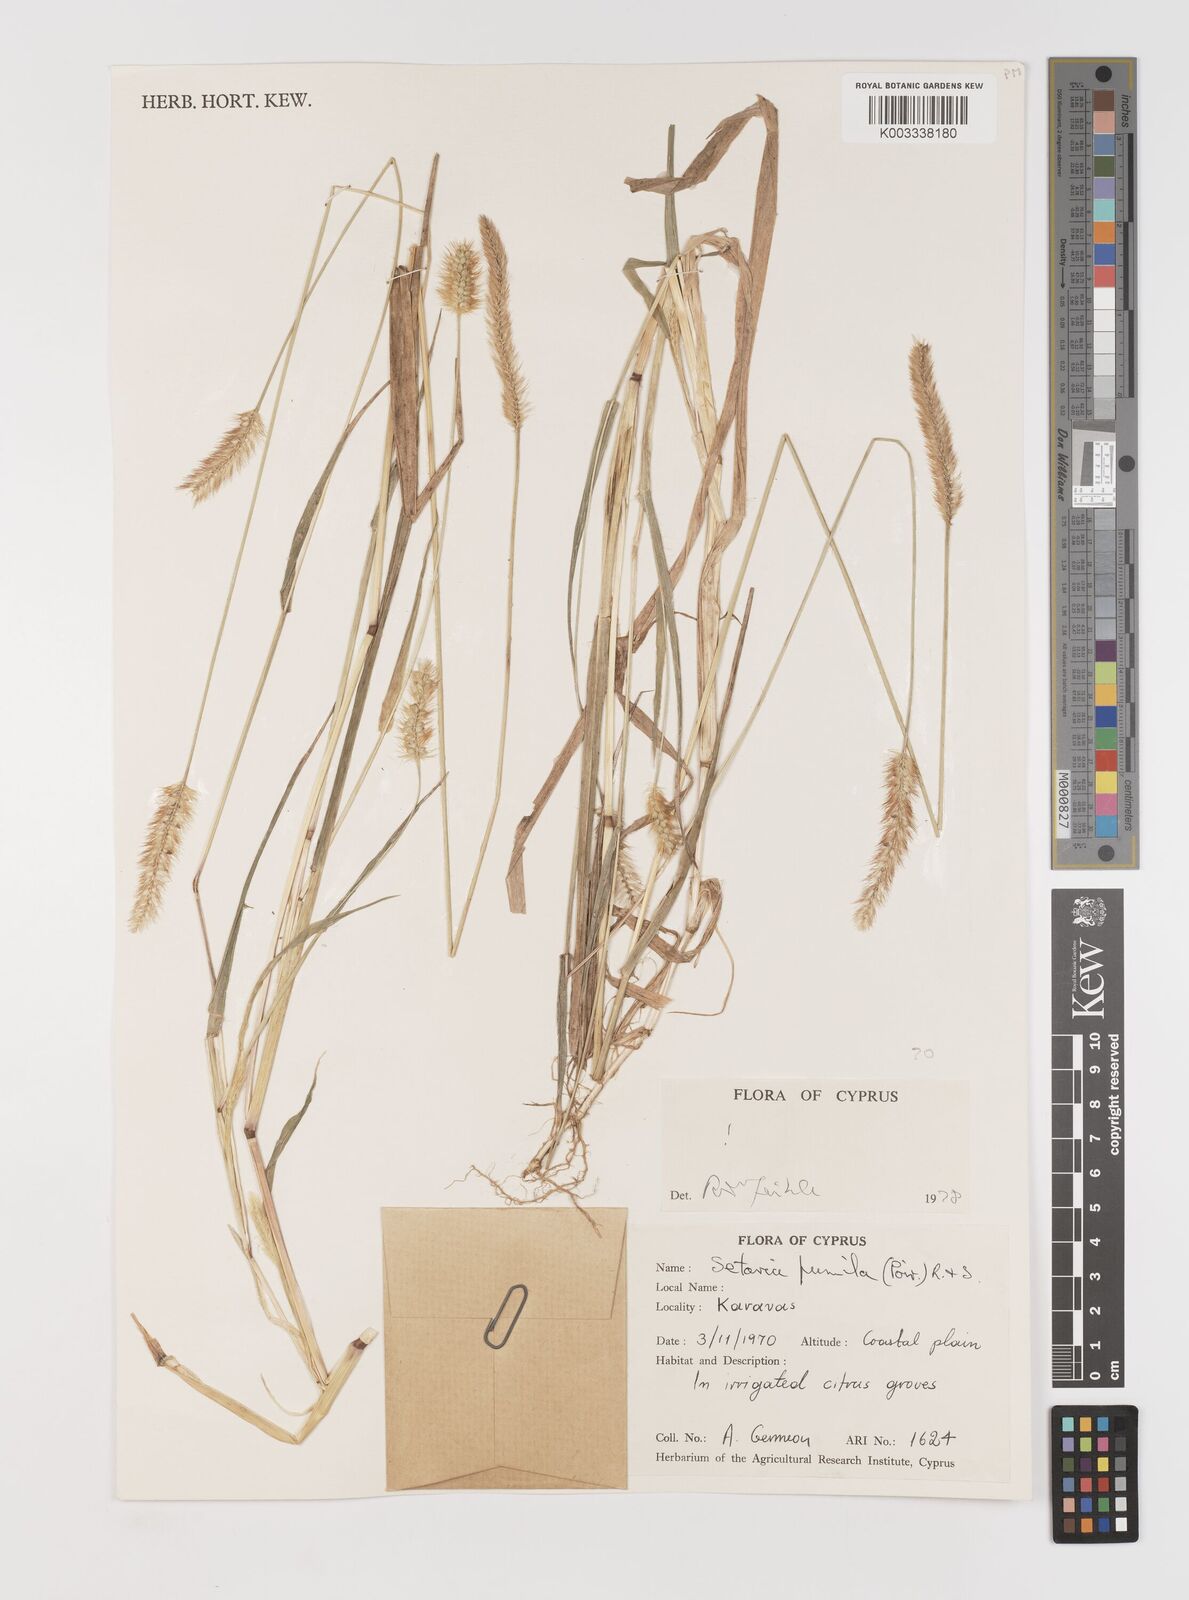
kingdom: Plantae
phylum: Tracheophyta
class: Liliopsida
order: Poales
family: Poaceae
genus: Setaria
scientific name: Setaria pumila
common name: Yellow bristle-grass
